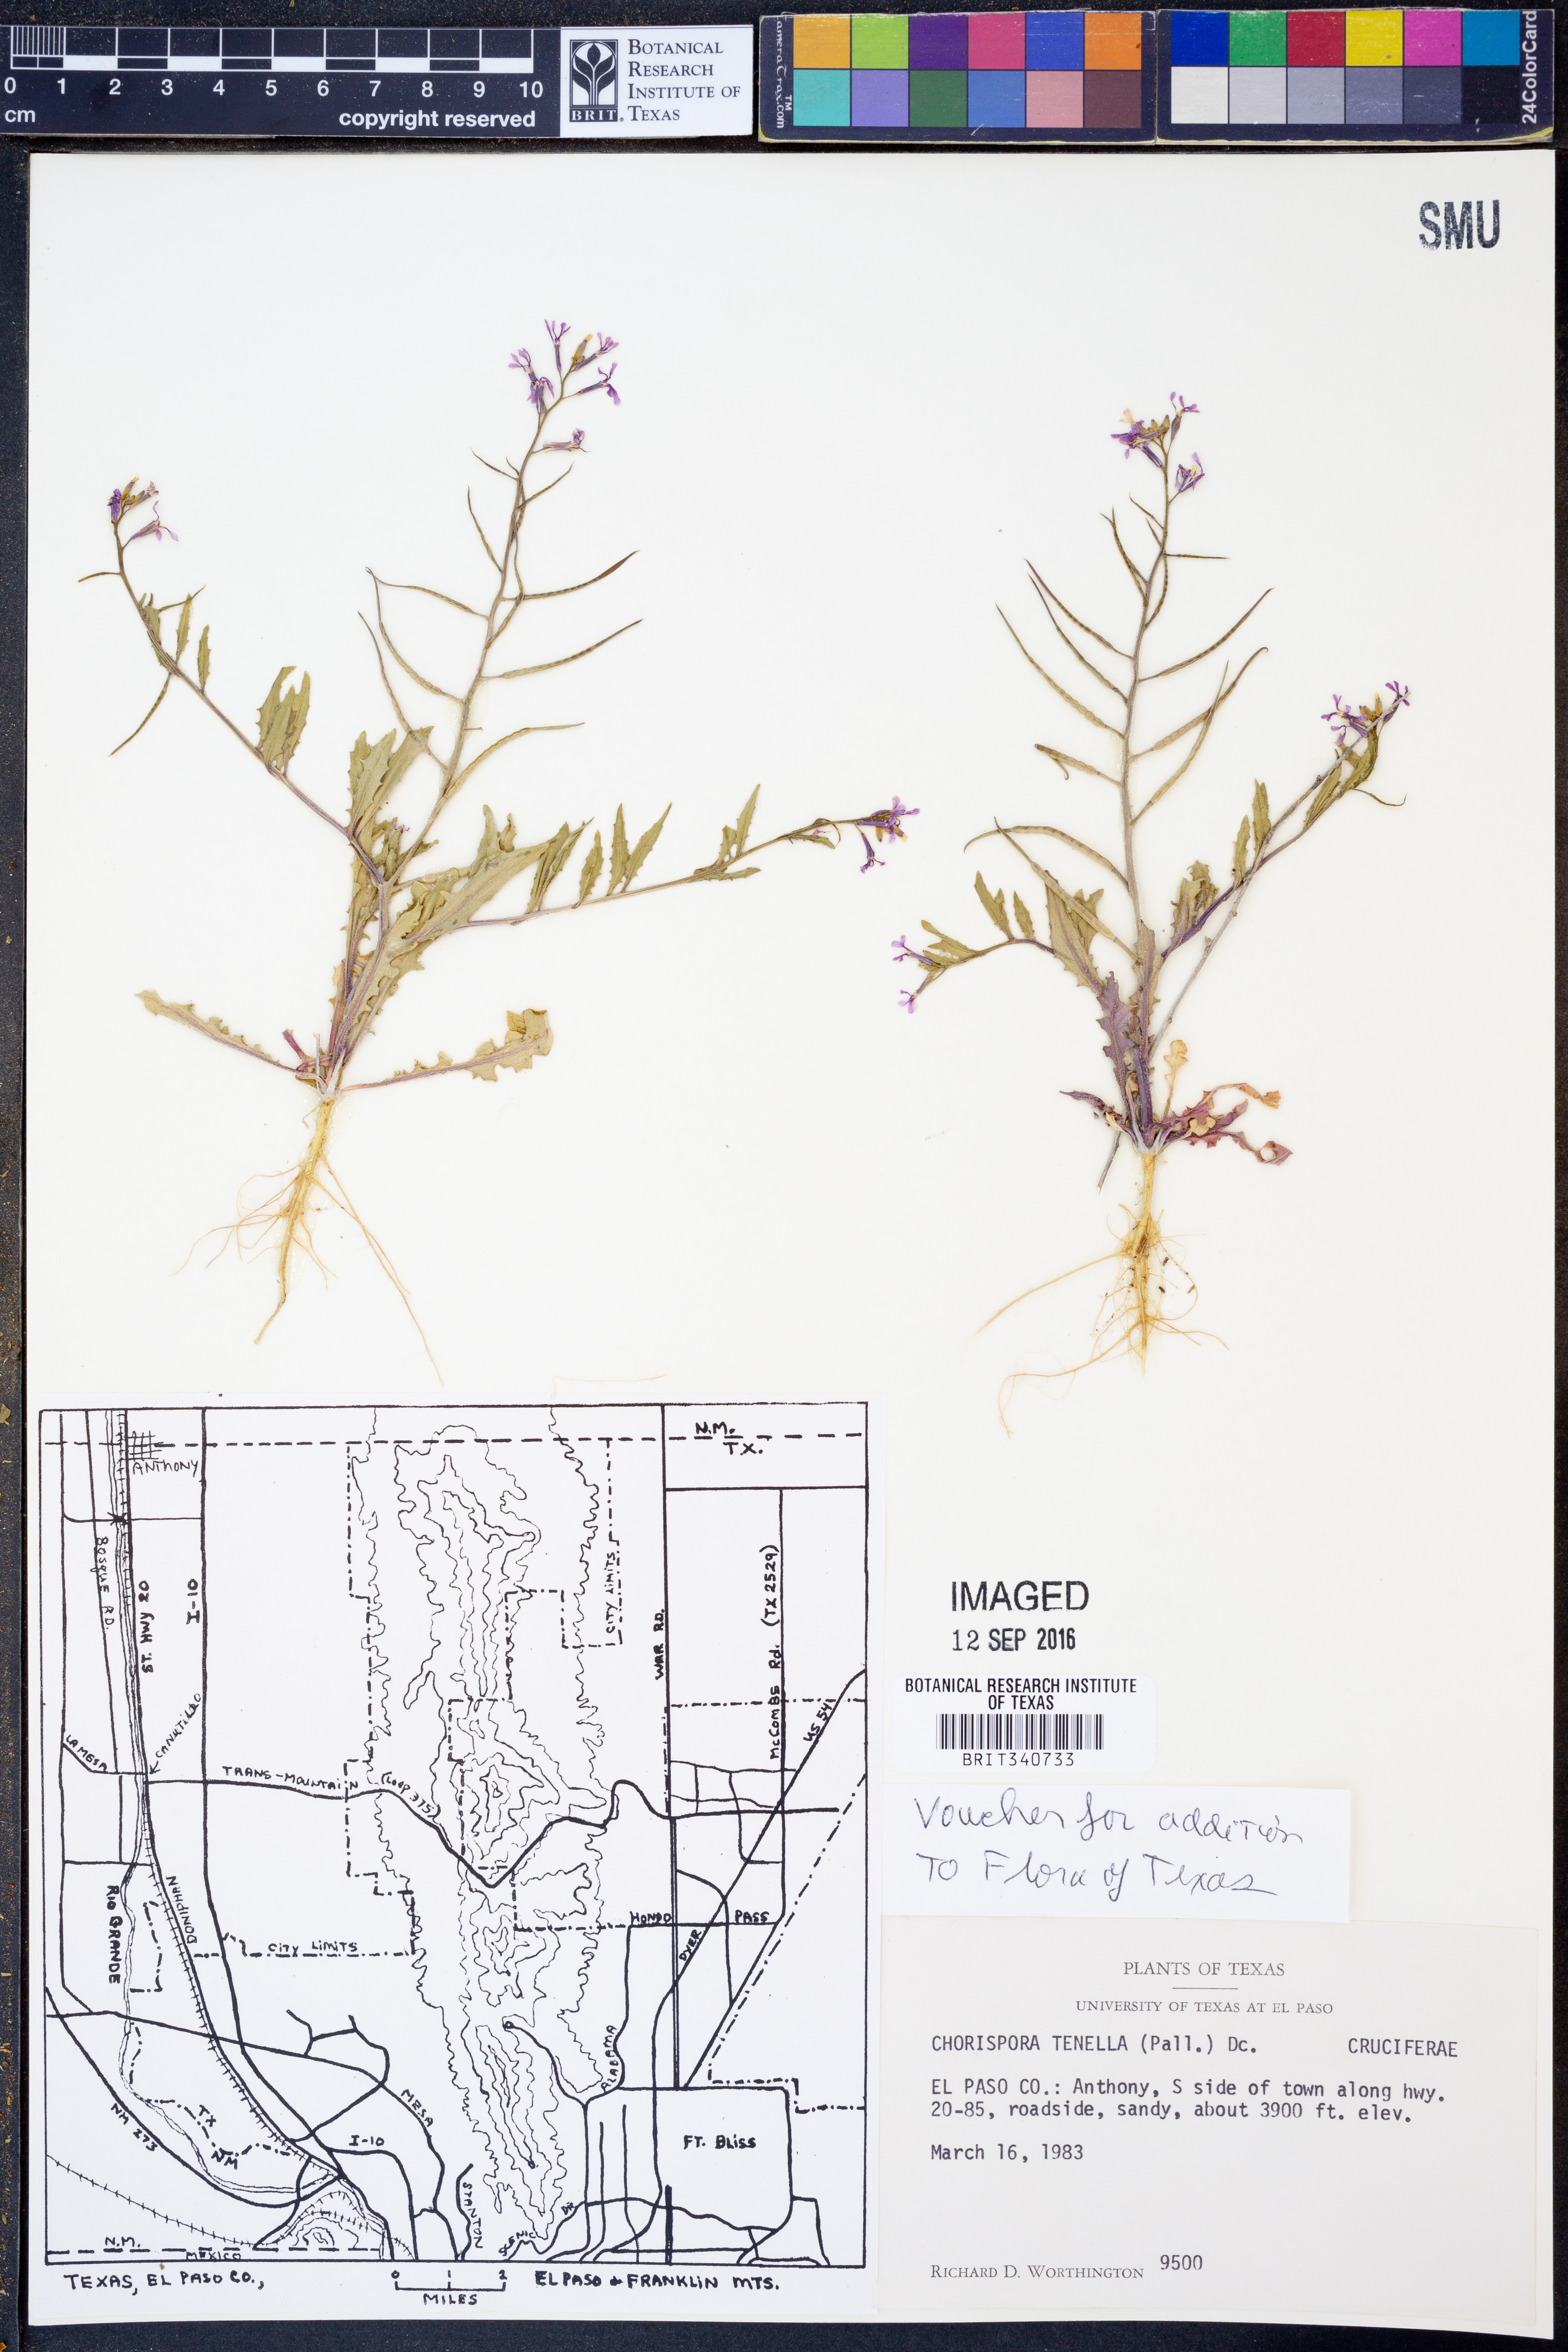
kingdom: Plantae
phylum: Tracheophyta
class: Magnoliopsida
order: Brassicales
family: Brassicaceae
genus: Chorispora
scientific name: Chorispora tenella
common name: Crossflower
